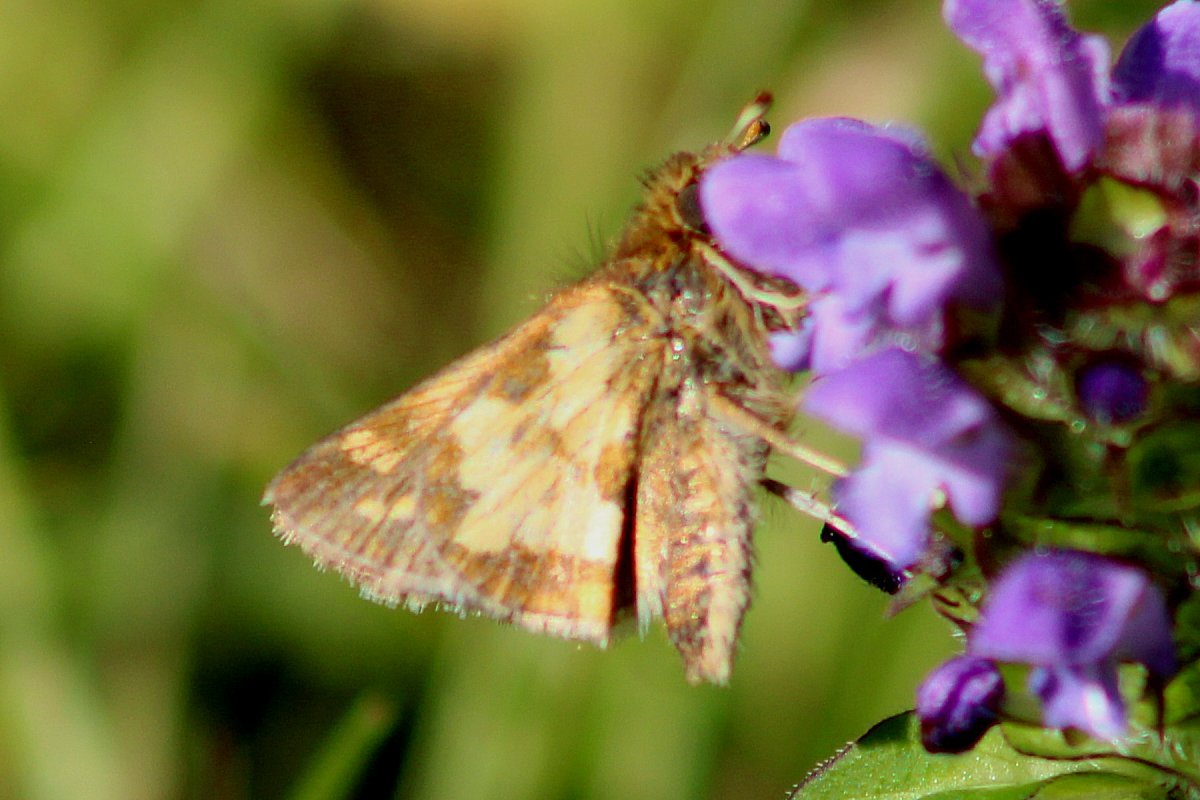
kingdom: Animalia
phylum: Arthropoda
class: Insecta
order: Lepidoptera
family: Hesperiidae
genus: Polites
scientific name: Polites coras
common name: Peck's Skipper
